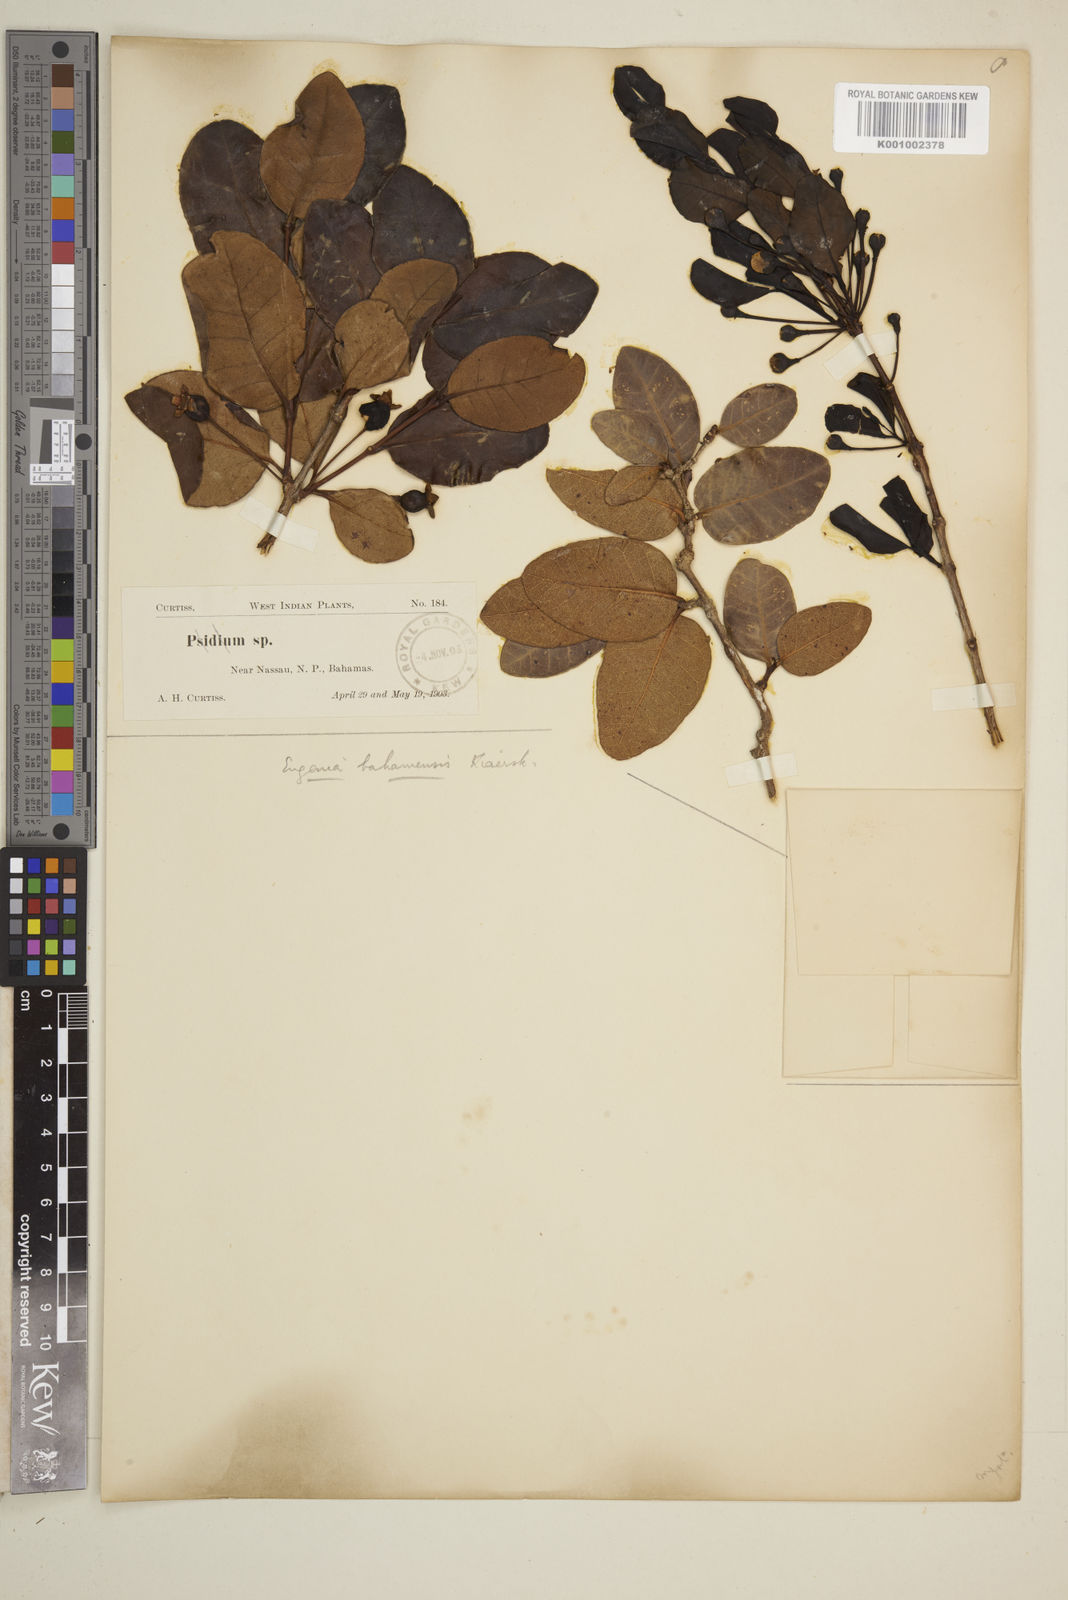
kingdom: Plantae
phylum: Tracheophyta
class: Magnoliopsida
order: Myrtales
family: Myrtaceae
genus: Mosiera
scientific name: Mosiera longipes
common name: Bahama stopper
